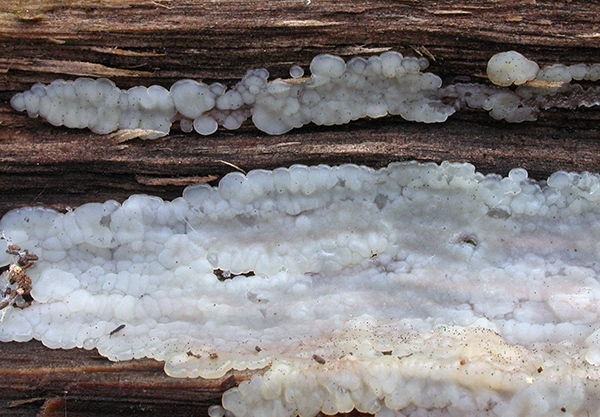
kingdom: Fungi
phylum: Basidiomycota
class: Agaricomycetes
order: Auriculariales
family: Auriculariaceae
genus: Exidia
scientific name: Exidia thuretiana
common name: hvidlig bævretop
